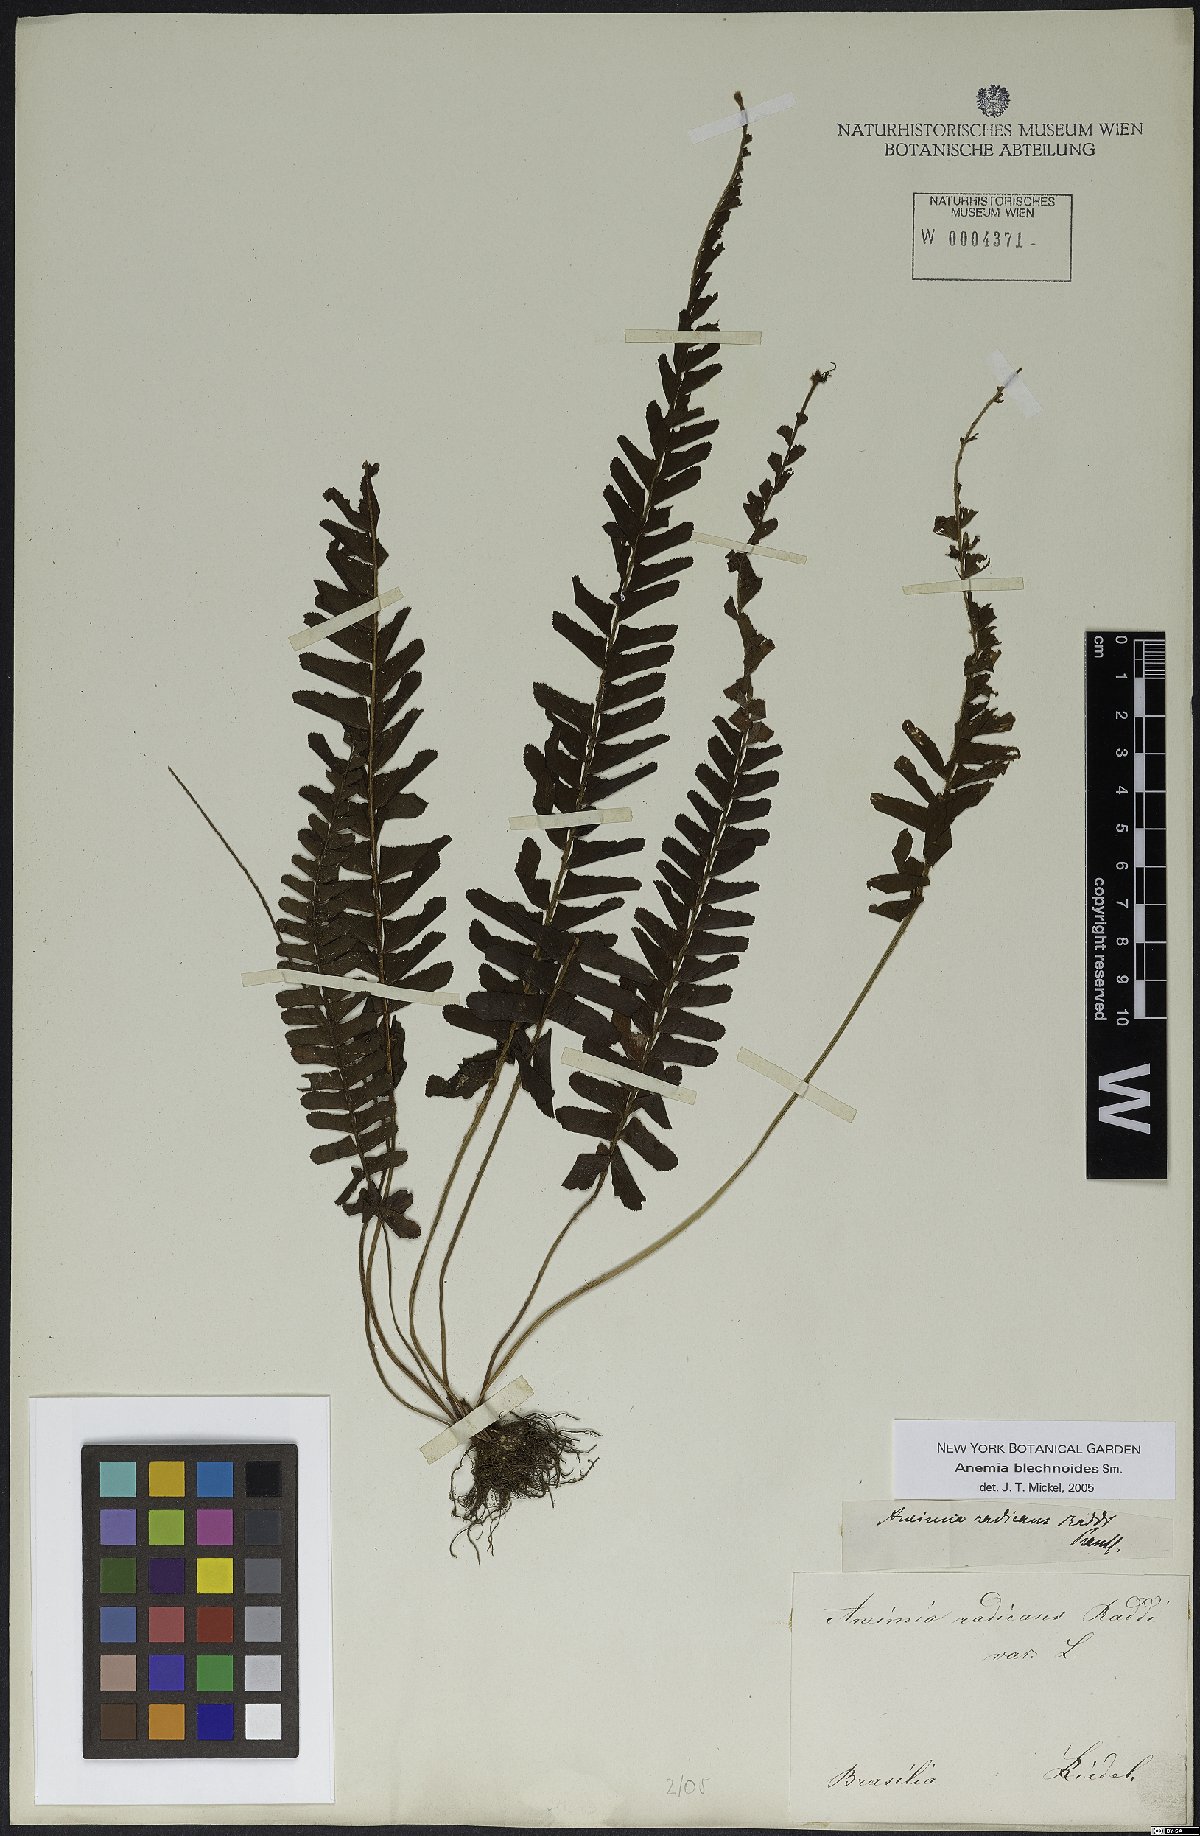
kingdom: Plantae
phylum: Tracheophyta
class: Polypodiopsida
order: Schizaeales
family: Anemiaceae
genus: Anemia
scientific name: Anemia spicantoides
